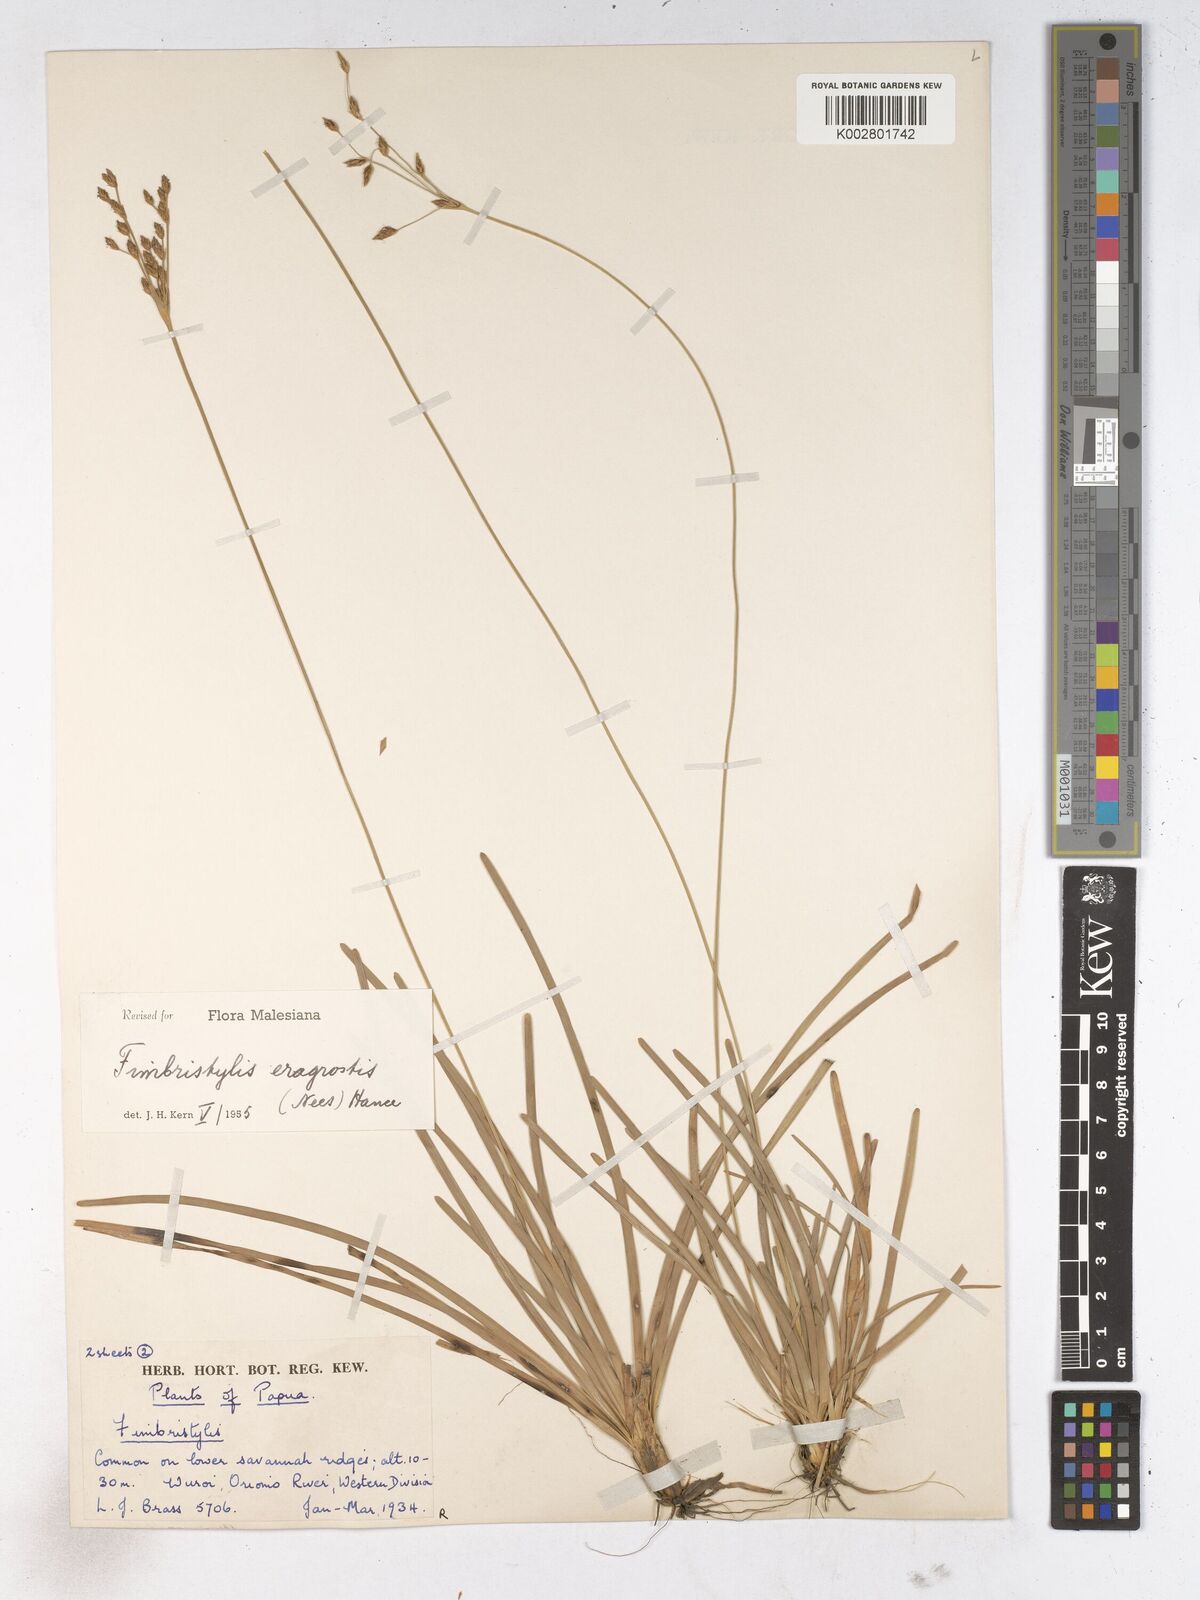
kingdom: Plantae
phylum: Tracheophyta
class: Liliopsida
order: Poales
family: Cyperaceae
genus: Fimbristylis
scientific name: Fimbristylis eragrostis
